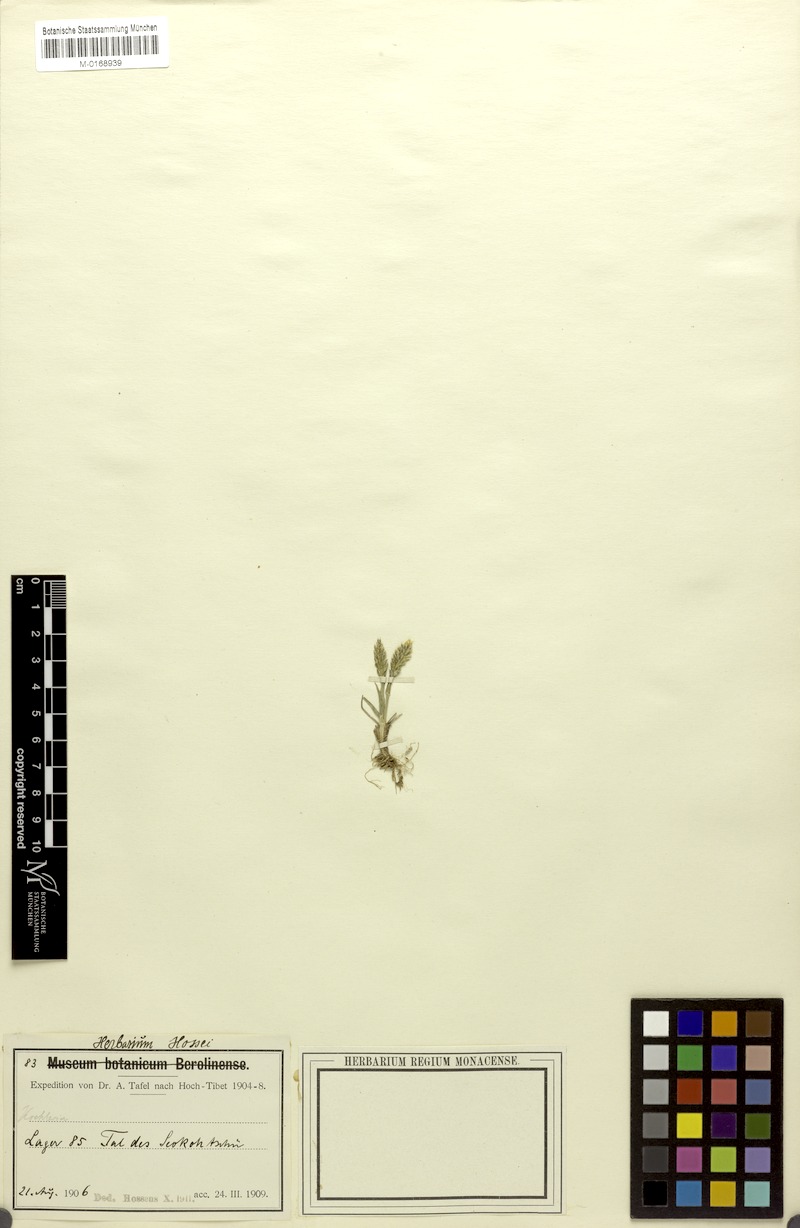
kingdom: Plantae
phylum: Tracheophyta
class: Liliopsida
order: Poales
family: Poaceae
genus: Koeleria
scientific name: Koeleria argentea
